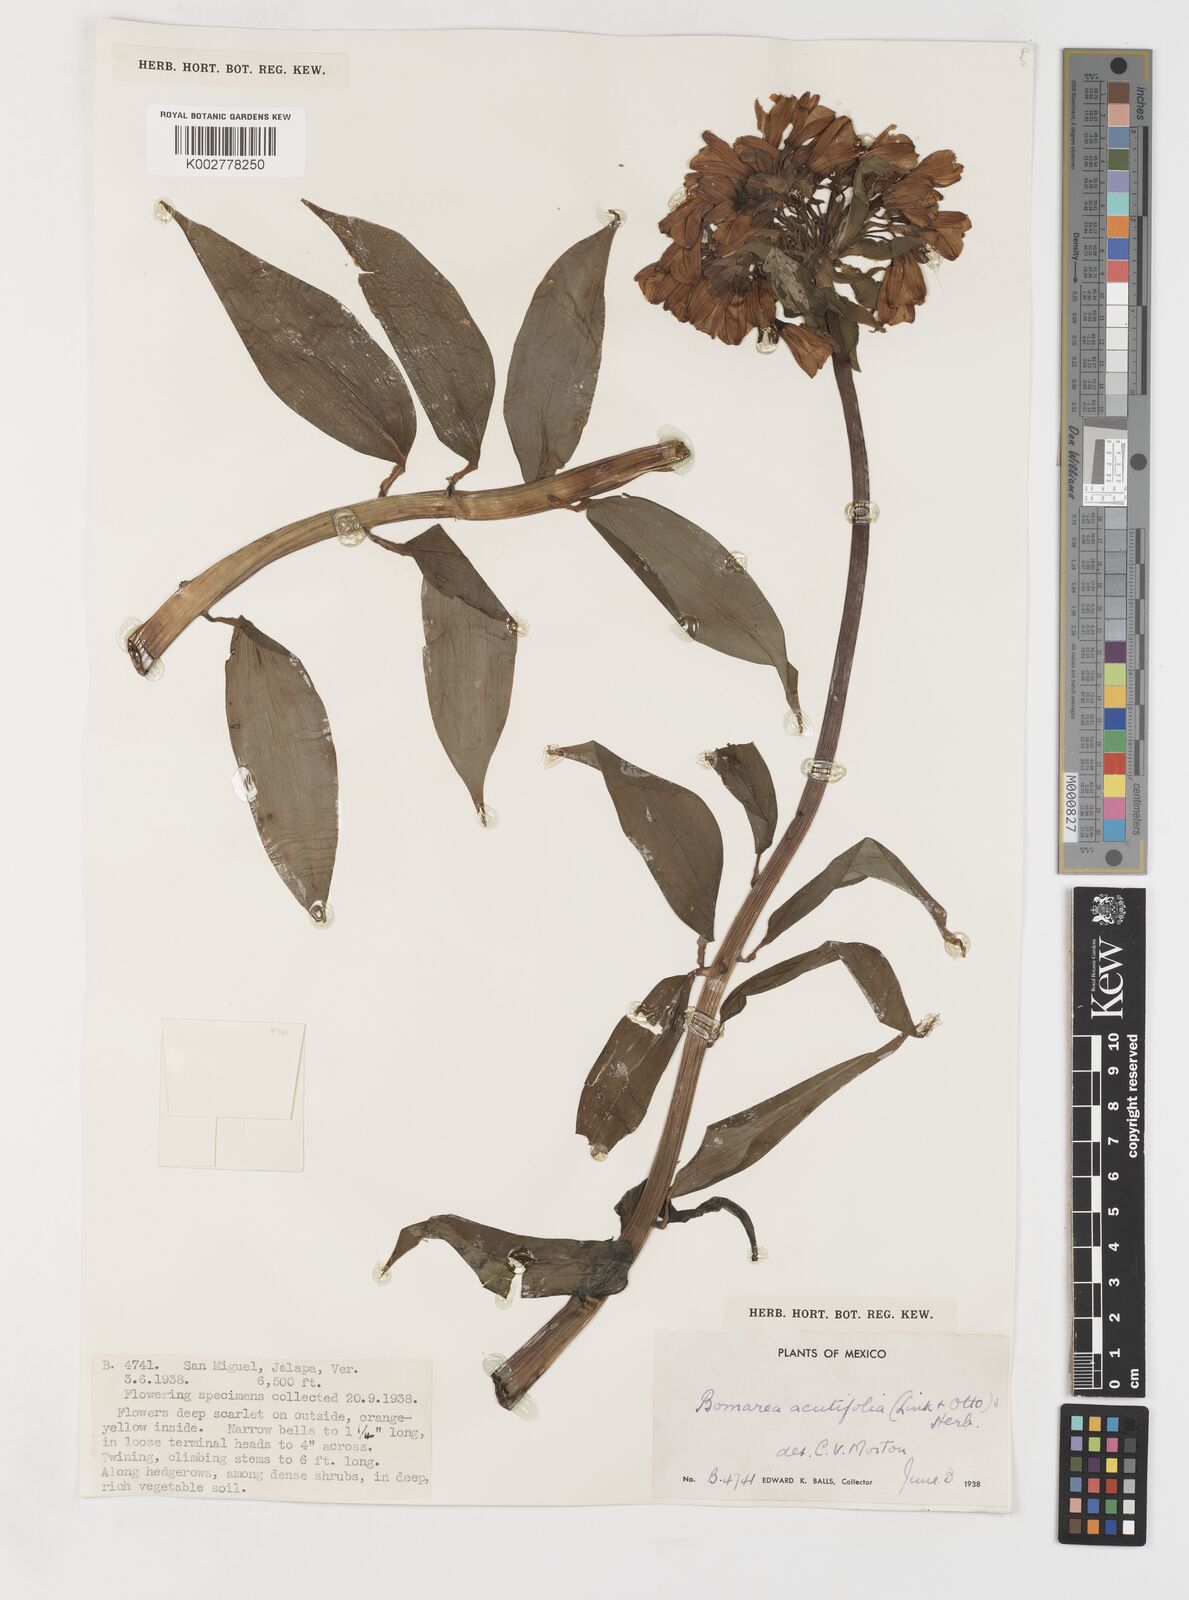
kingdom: Plantae
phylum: Tracheophyta
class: Liliopsida
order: Liliales
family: Alstroemeriaceae
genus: Bomarea
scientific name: Bomarea acutifolia
